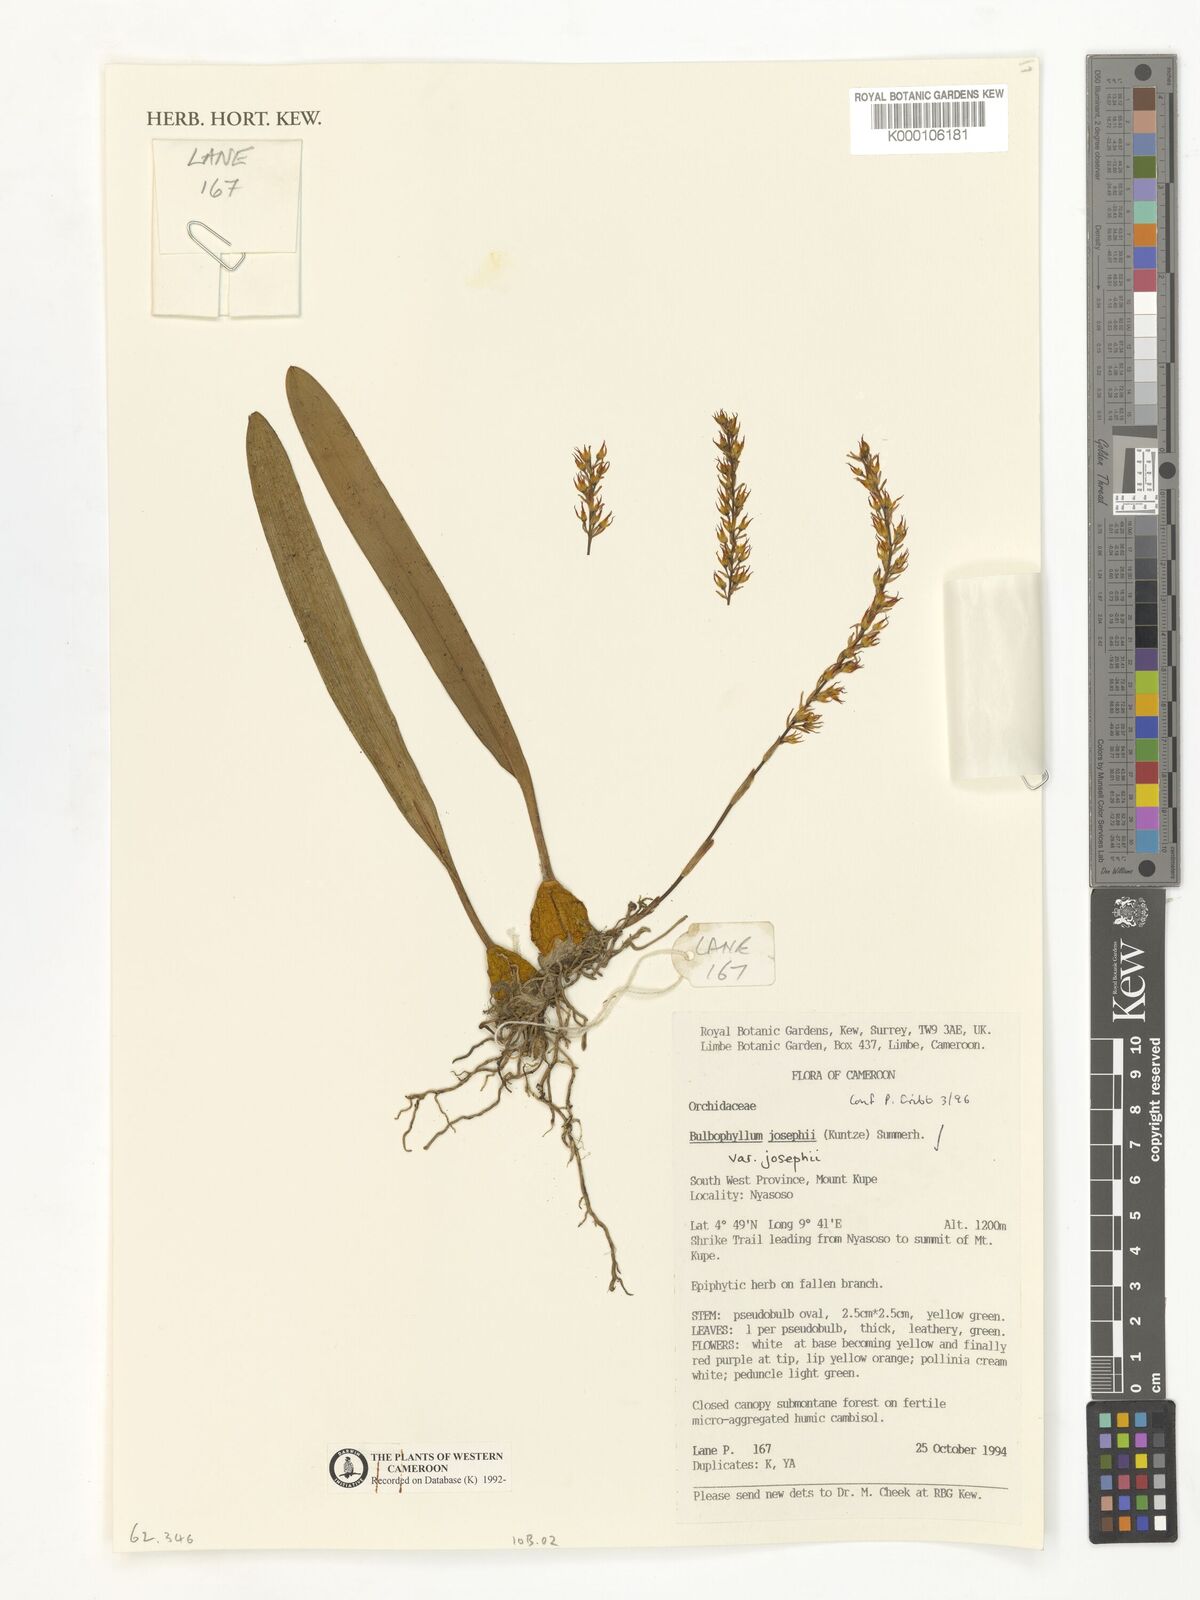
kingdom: Plantae
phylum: Tracheophyta
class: Liliopsida
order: Asparagales
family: Orchidaceae
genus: Bulbophyllum
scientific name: Bulbophyllum josephi
